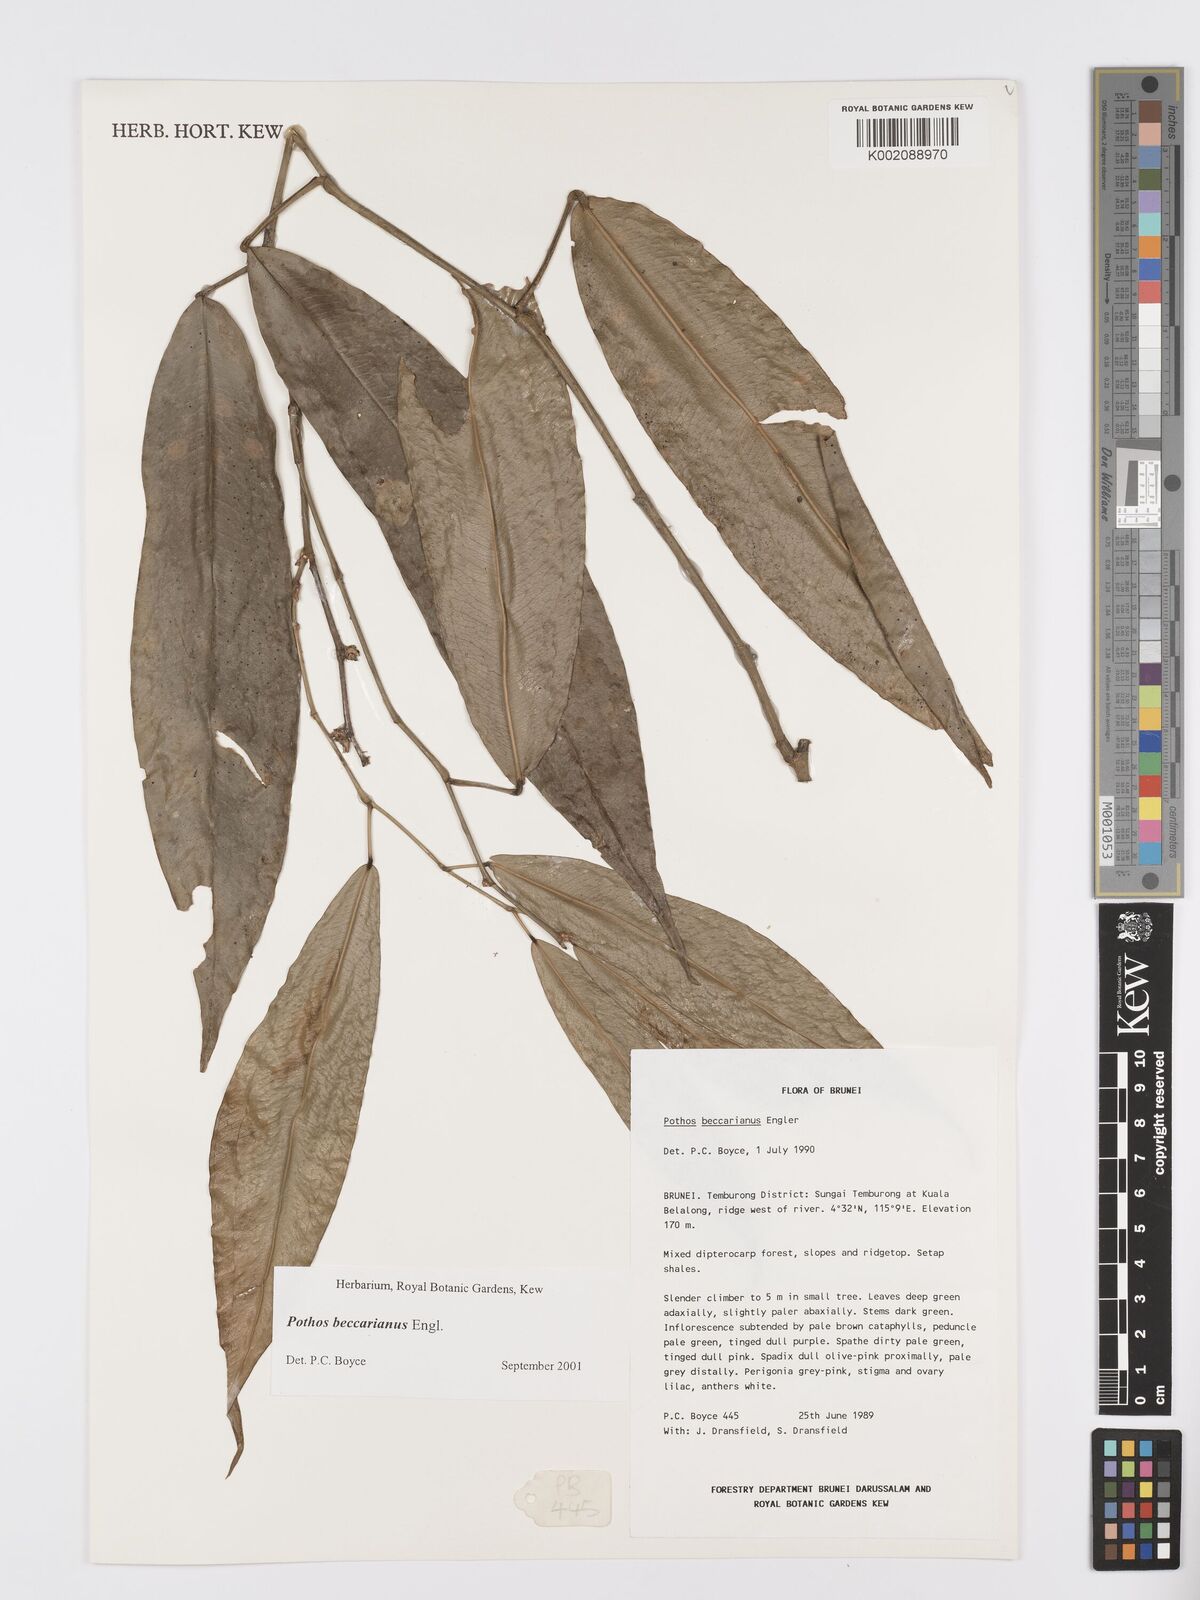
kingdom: Plantae
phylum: Tracheophyta
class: Liliopsida
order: Alismatales
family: Araceae
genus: Pothos
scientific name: Pothos beccarianus
